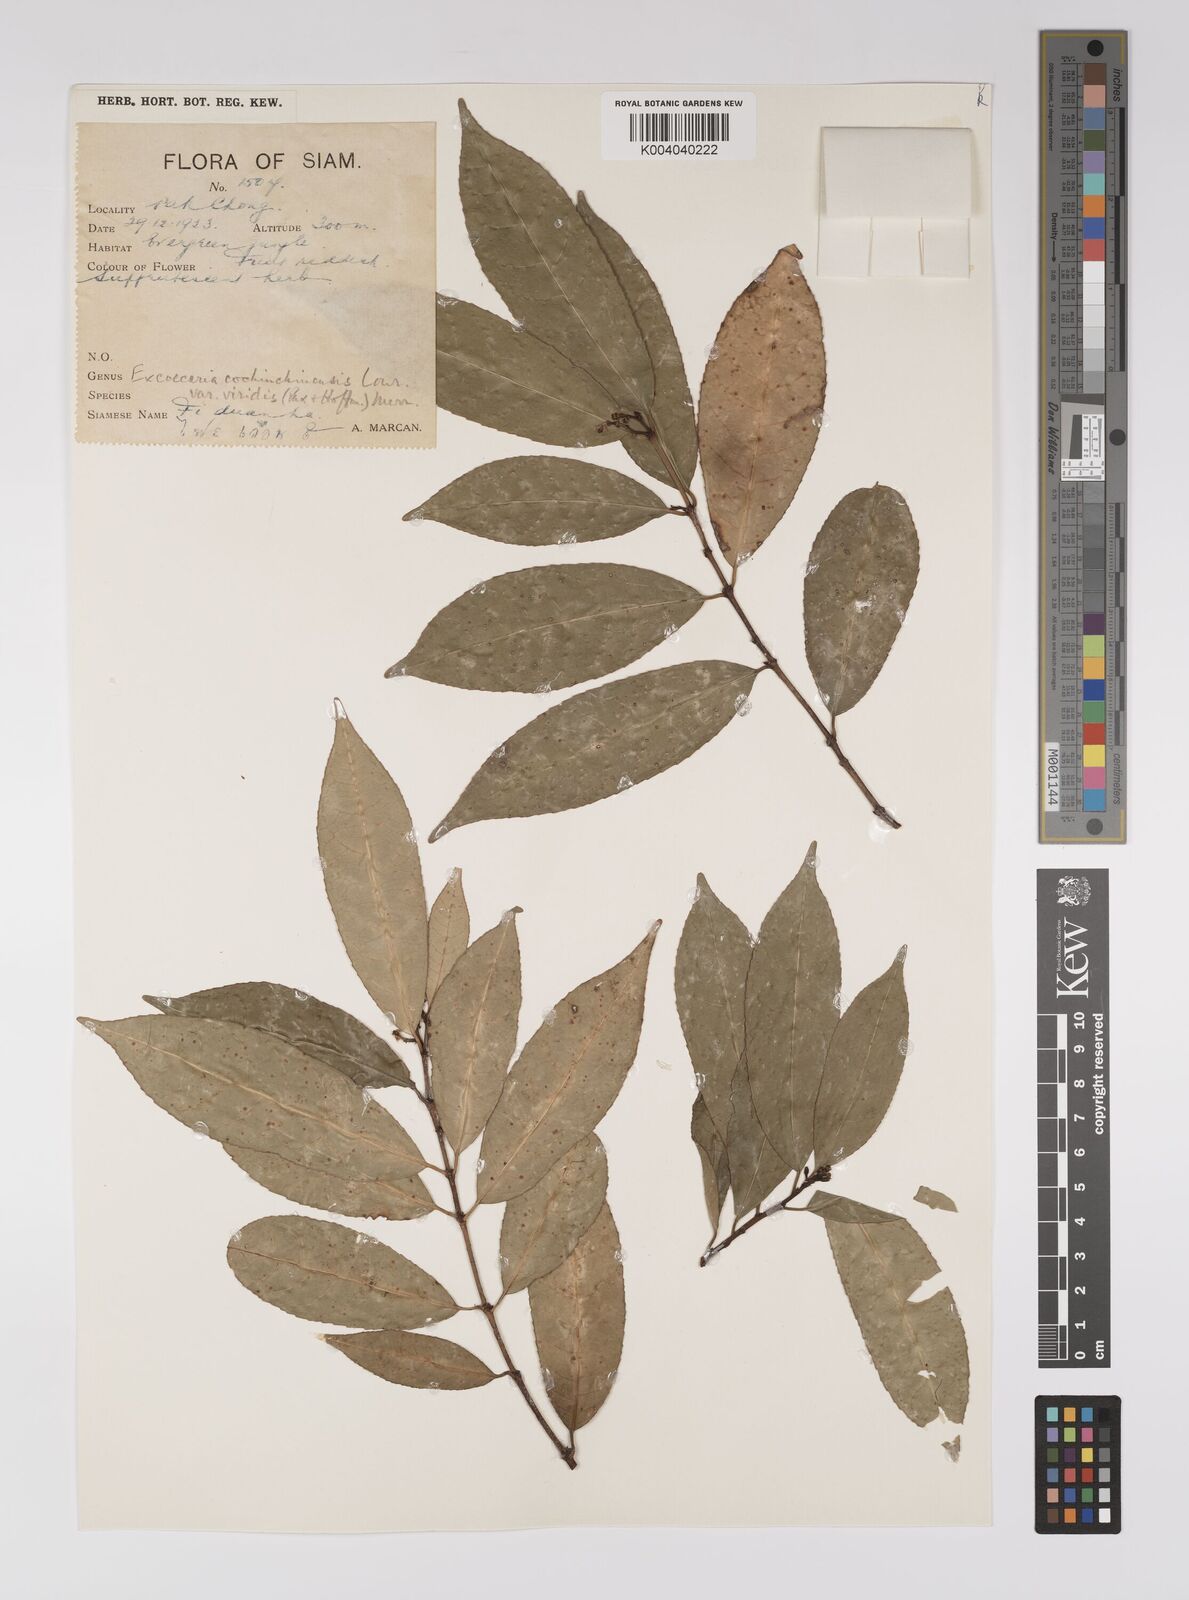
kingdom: Plantae
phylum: Tracheophyta
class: Magnoliopsida
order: Malpighiales
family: Euphorbiaceae
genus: Excoecaria
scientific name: Excoecaria cochinchinensis
